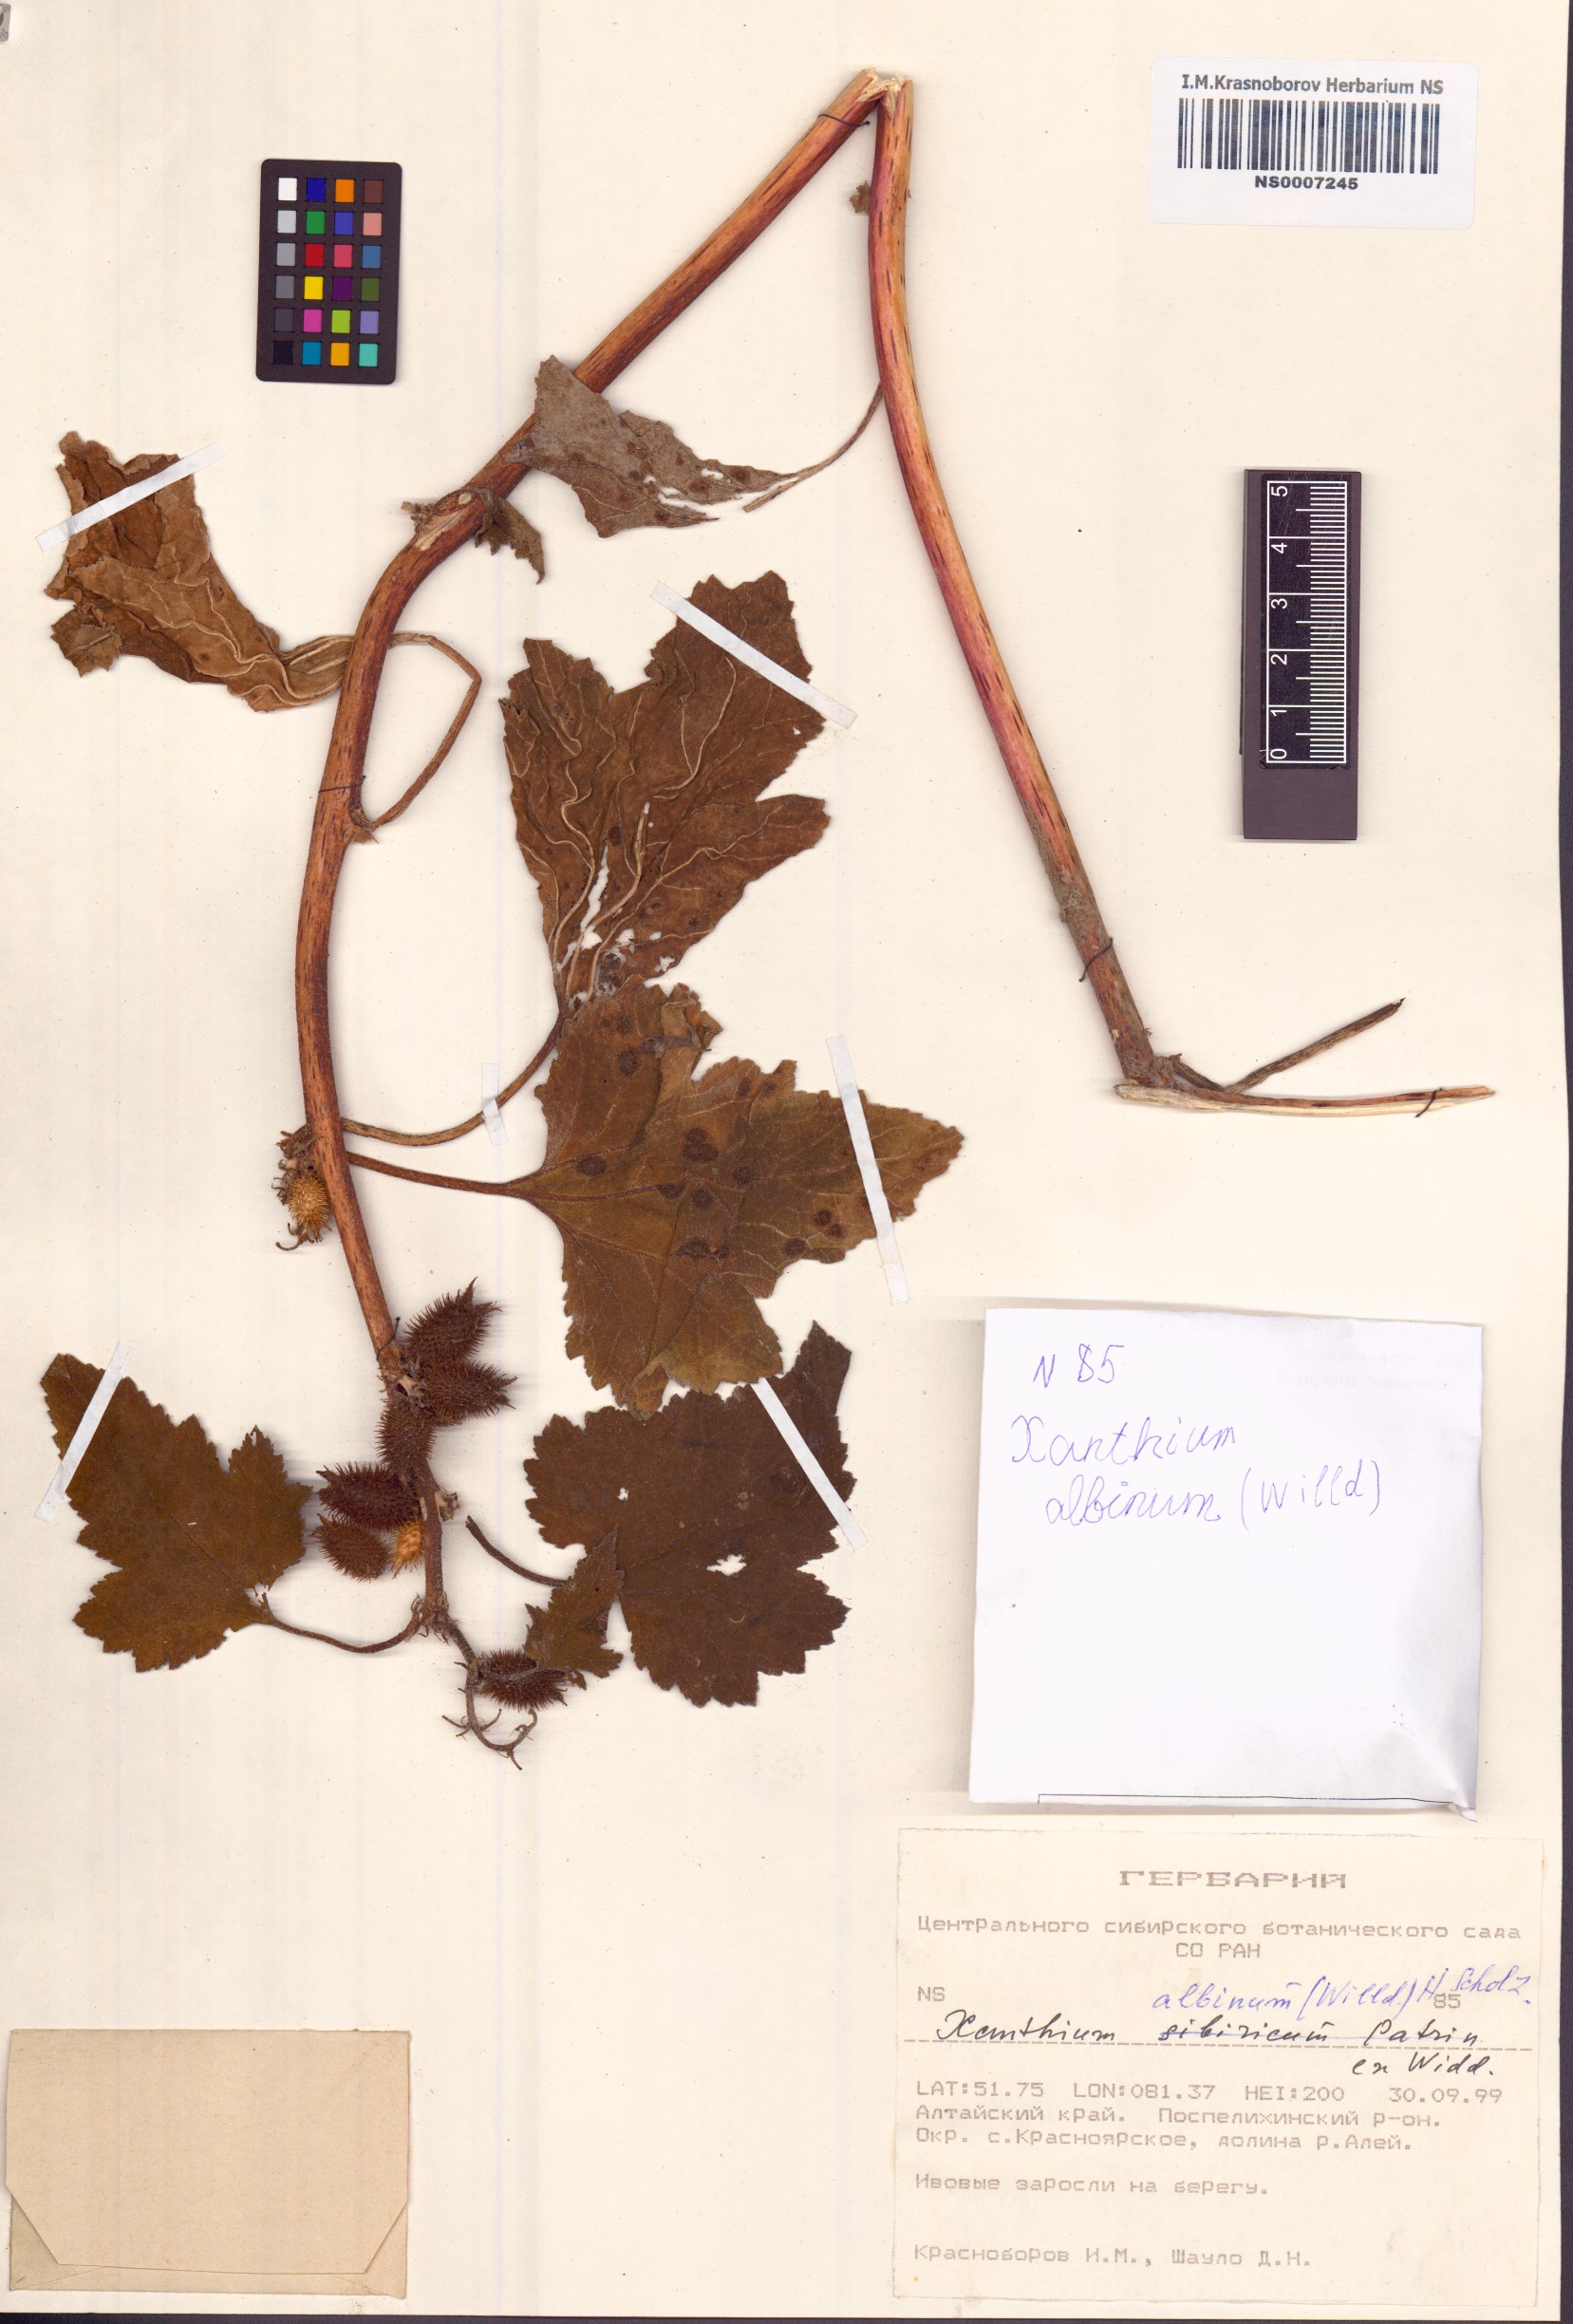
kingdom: Plantae
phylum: Tracheophyta
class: Magnoliopsida
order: Asterales
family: Asteraceae
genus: Xanthium
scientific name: Xanthium orientale
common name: Californian burr
